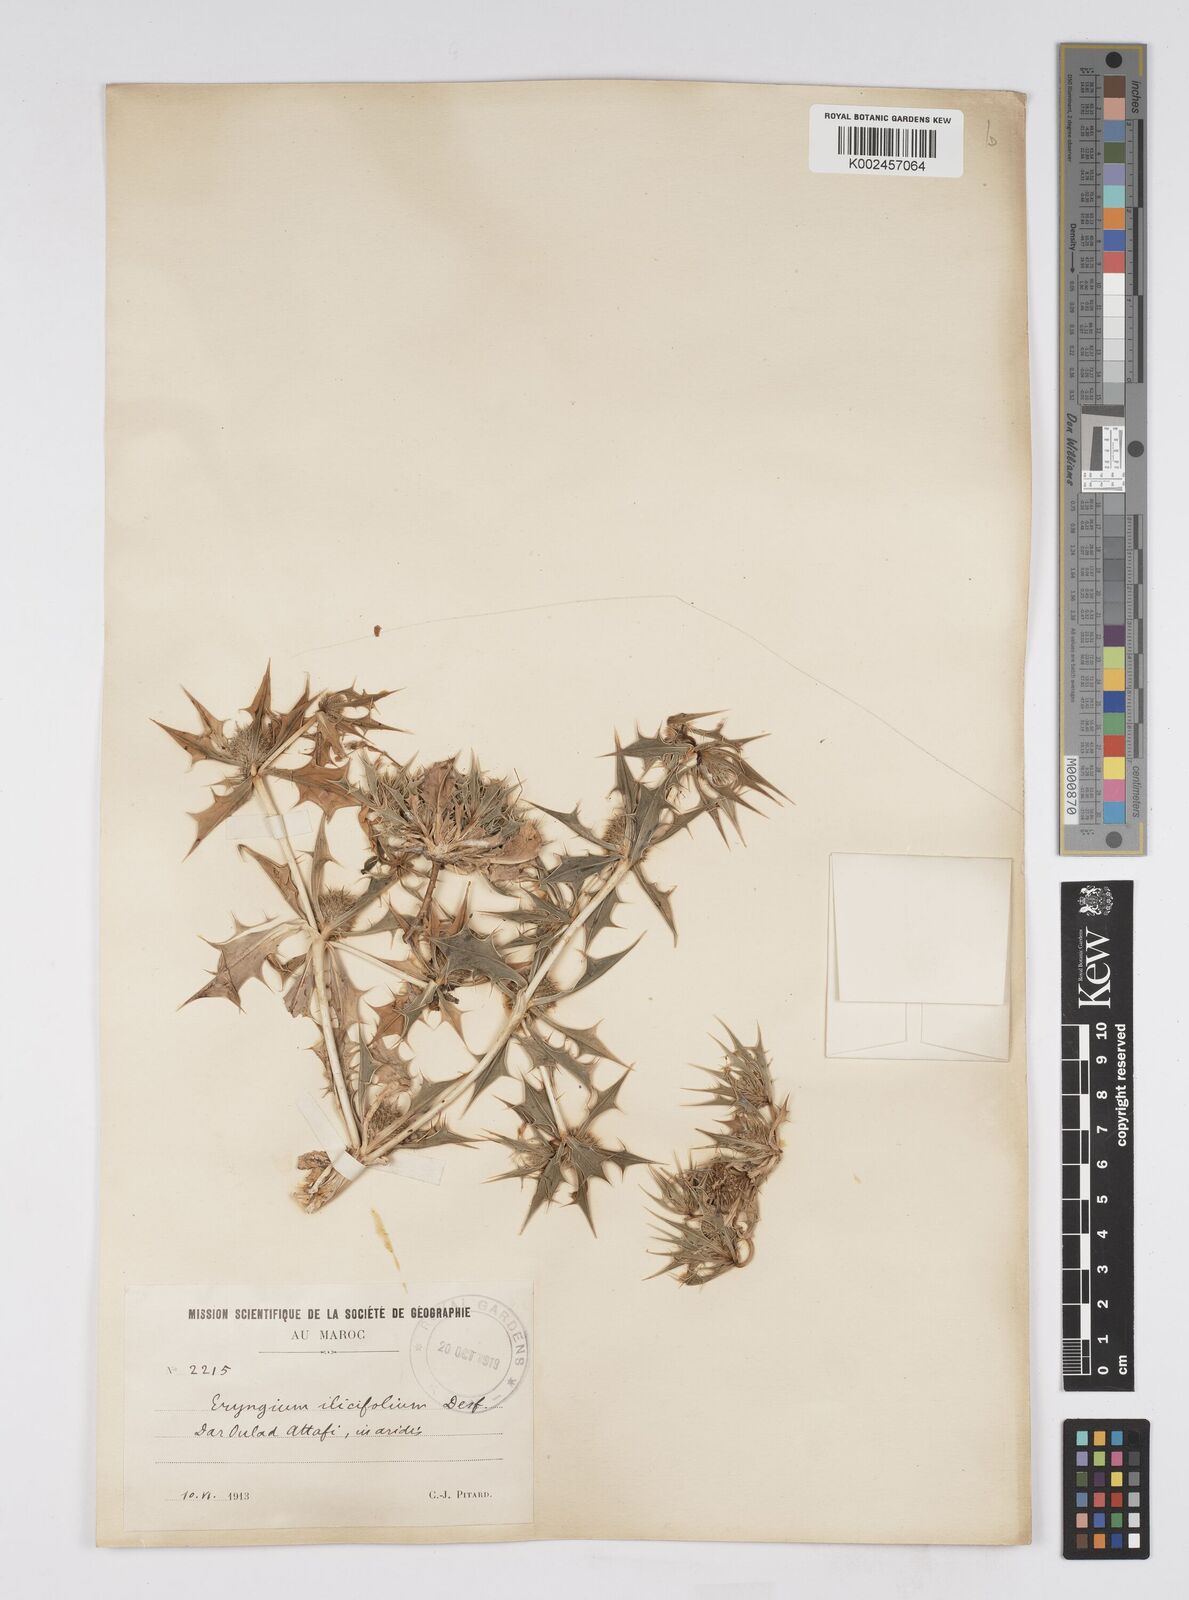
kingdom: Plantae
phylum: Tracheophyta
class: Magnoliopsida
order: Apiales
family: Apiaceae
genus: Eryngium
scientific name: Eryngium
